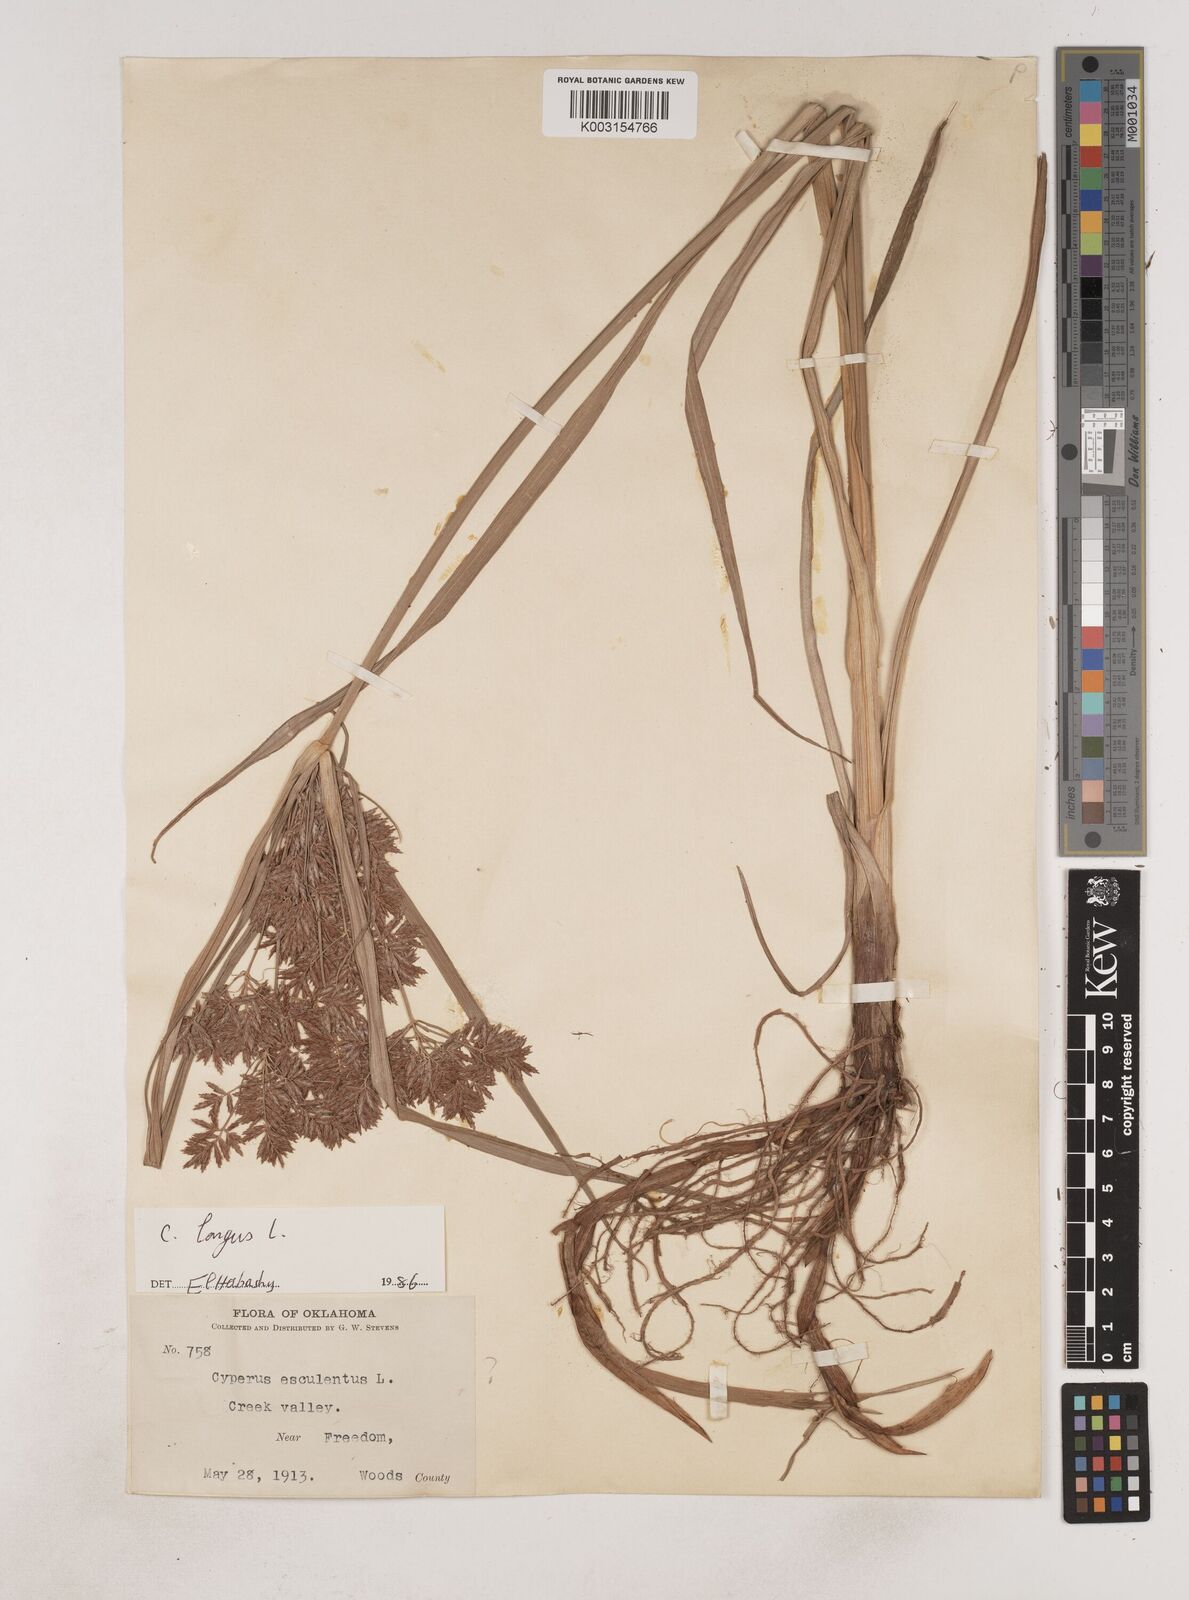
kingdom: Plantae
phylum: Tracheophyta
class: Liliopsida
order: Poales
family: Cyperaceae
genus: Cyperus
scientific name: Cyperus longus
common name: Galingale
